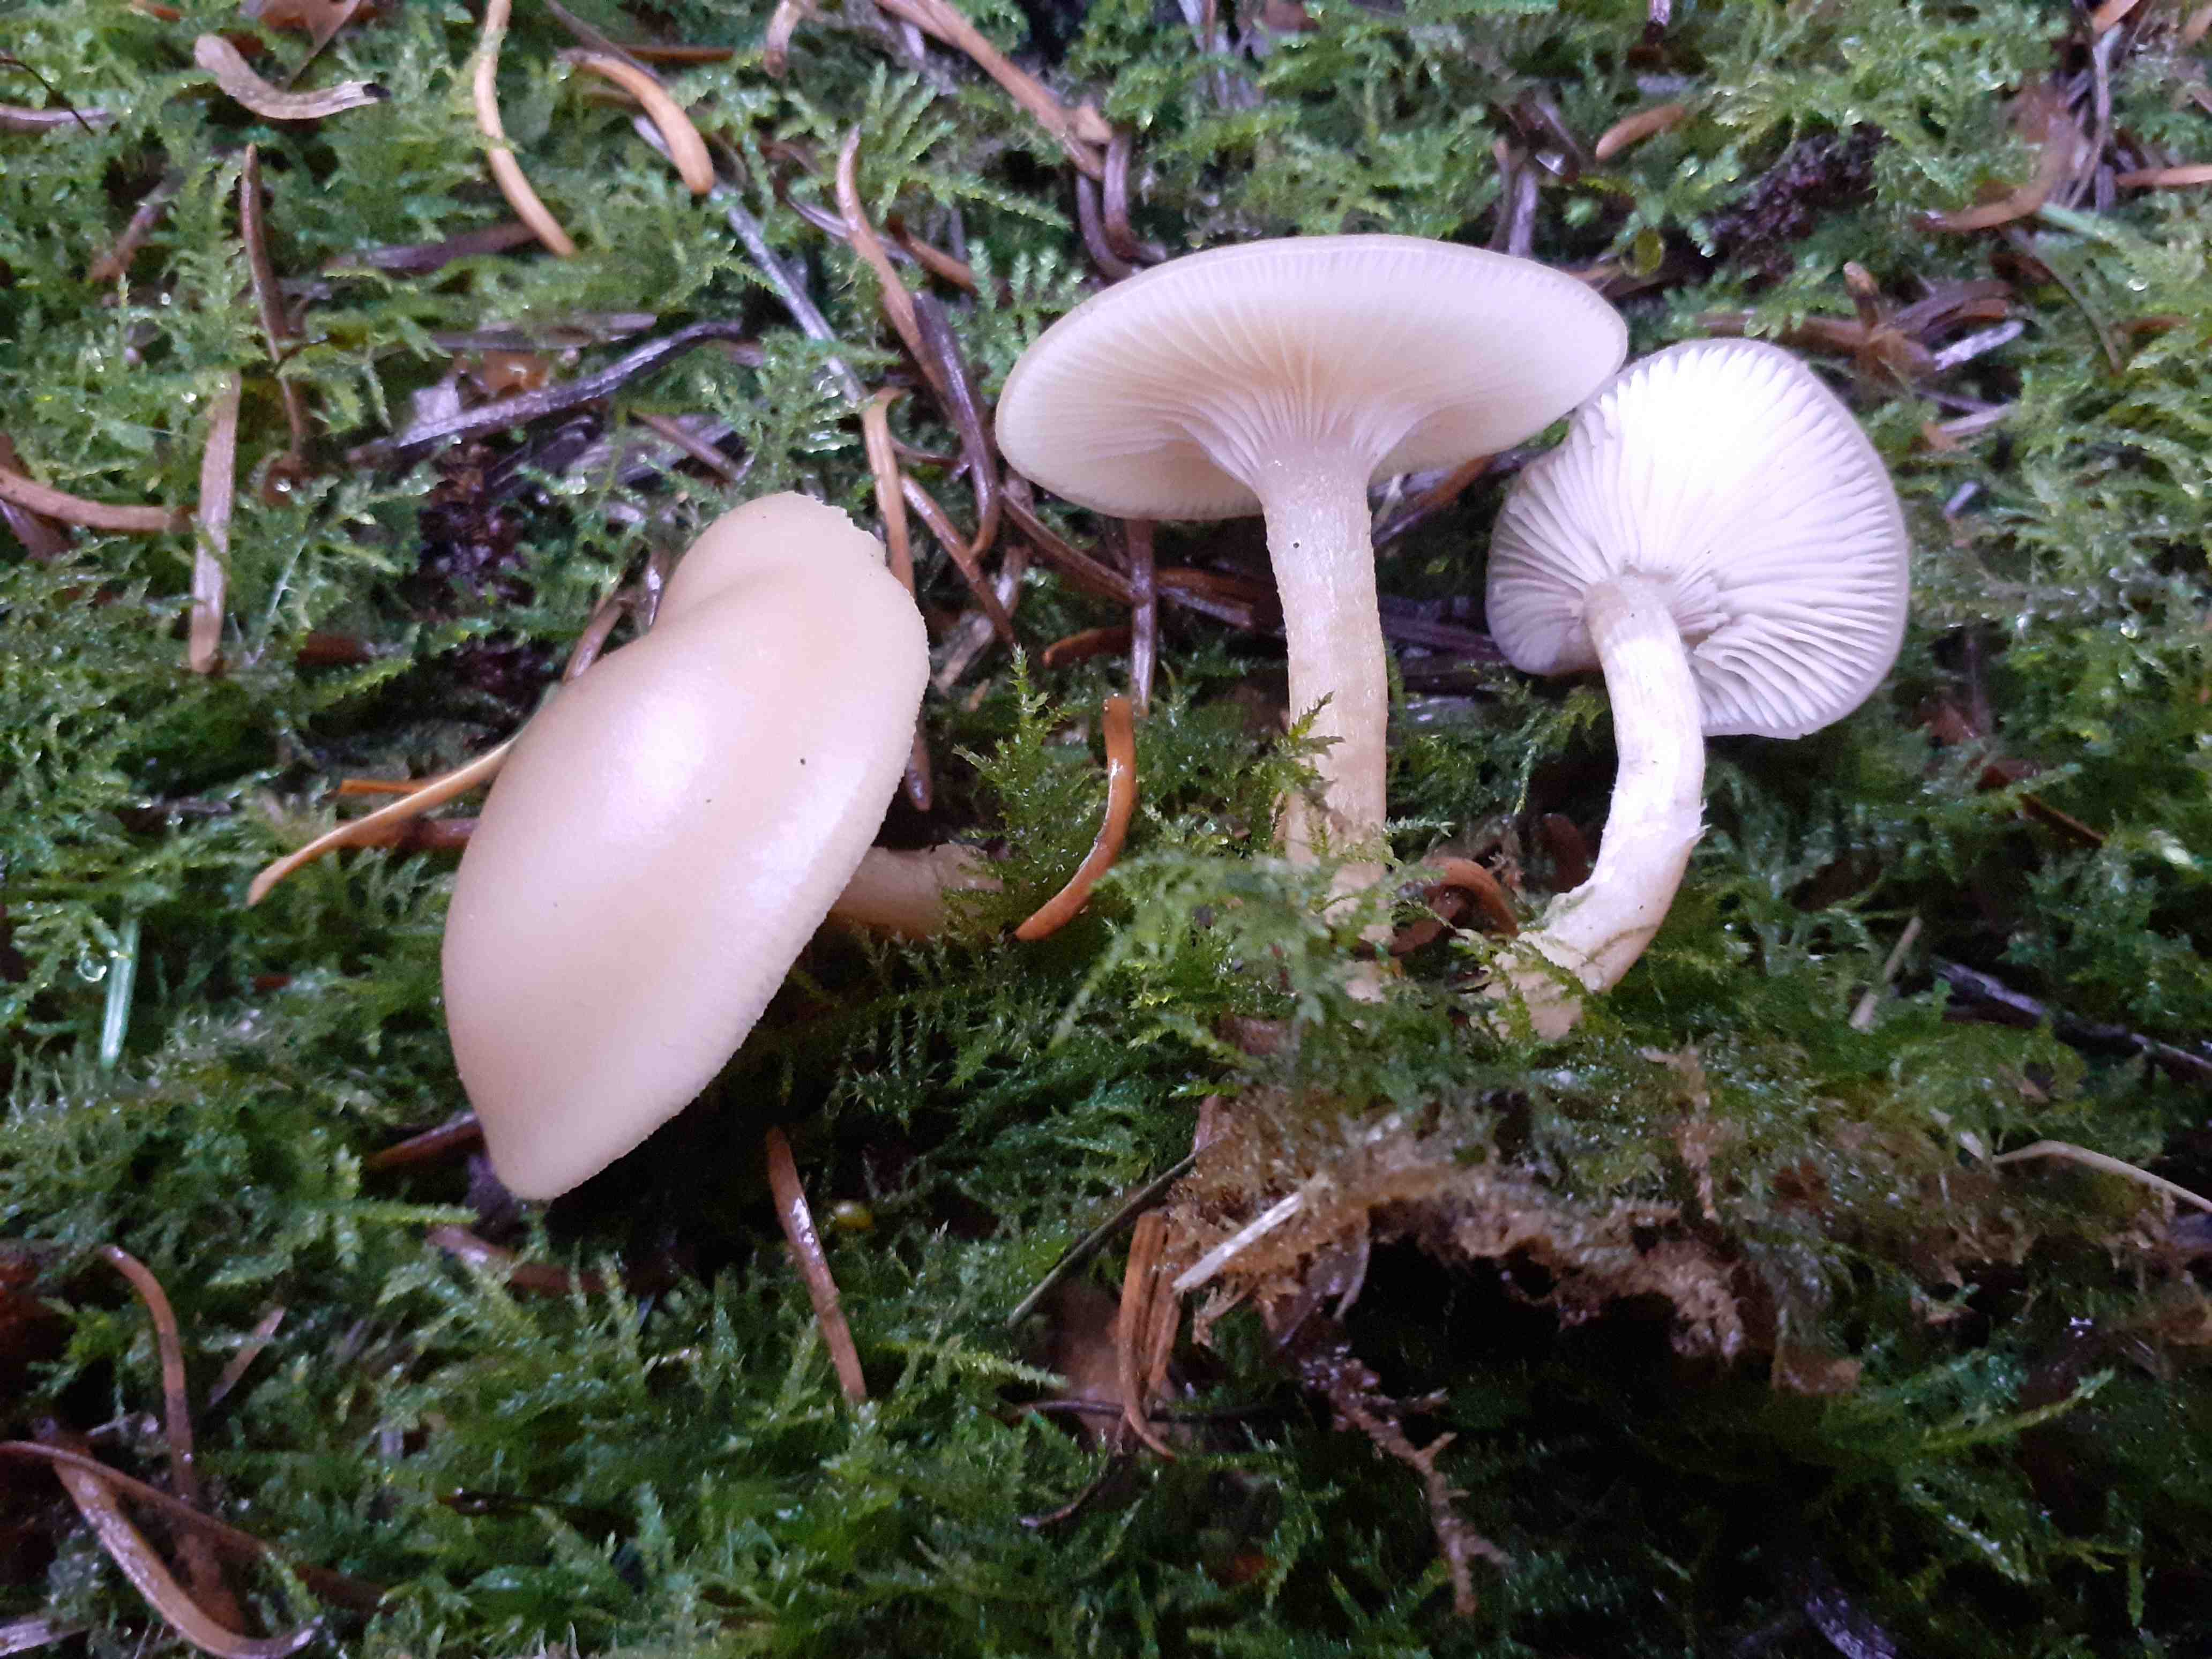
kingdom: Fungi
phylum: Basidiomycota
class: Agaricomycetes
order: Agaricales
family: Tricholomataceae
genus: Clitocybe
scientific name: Clitocybe fragrans
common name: vellugtende tragthat
